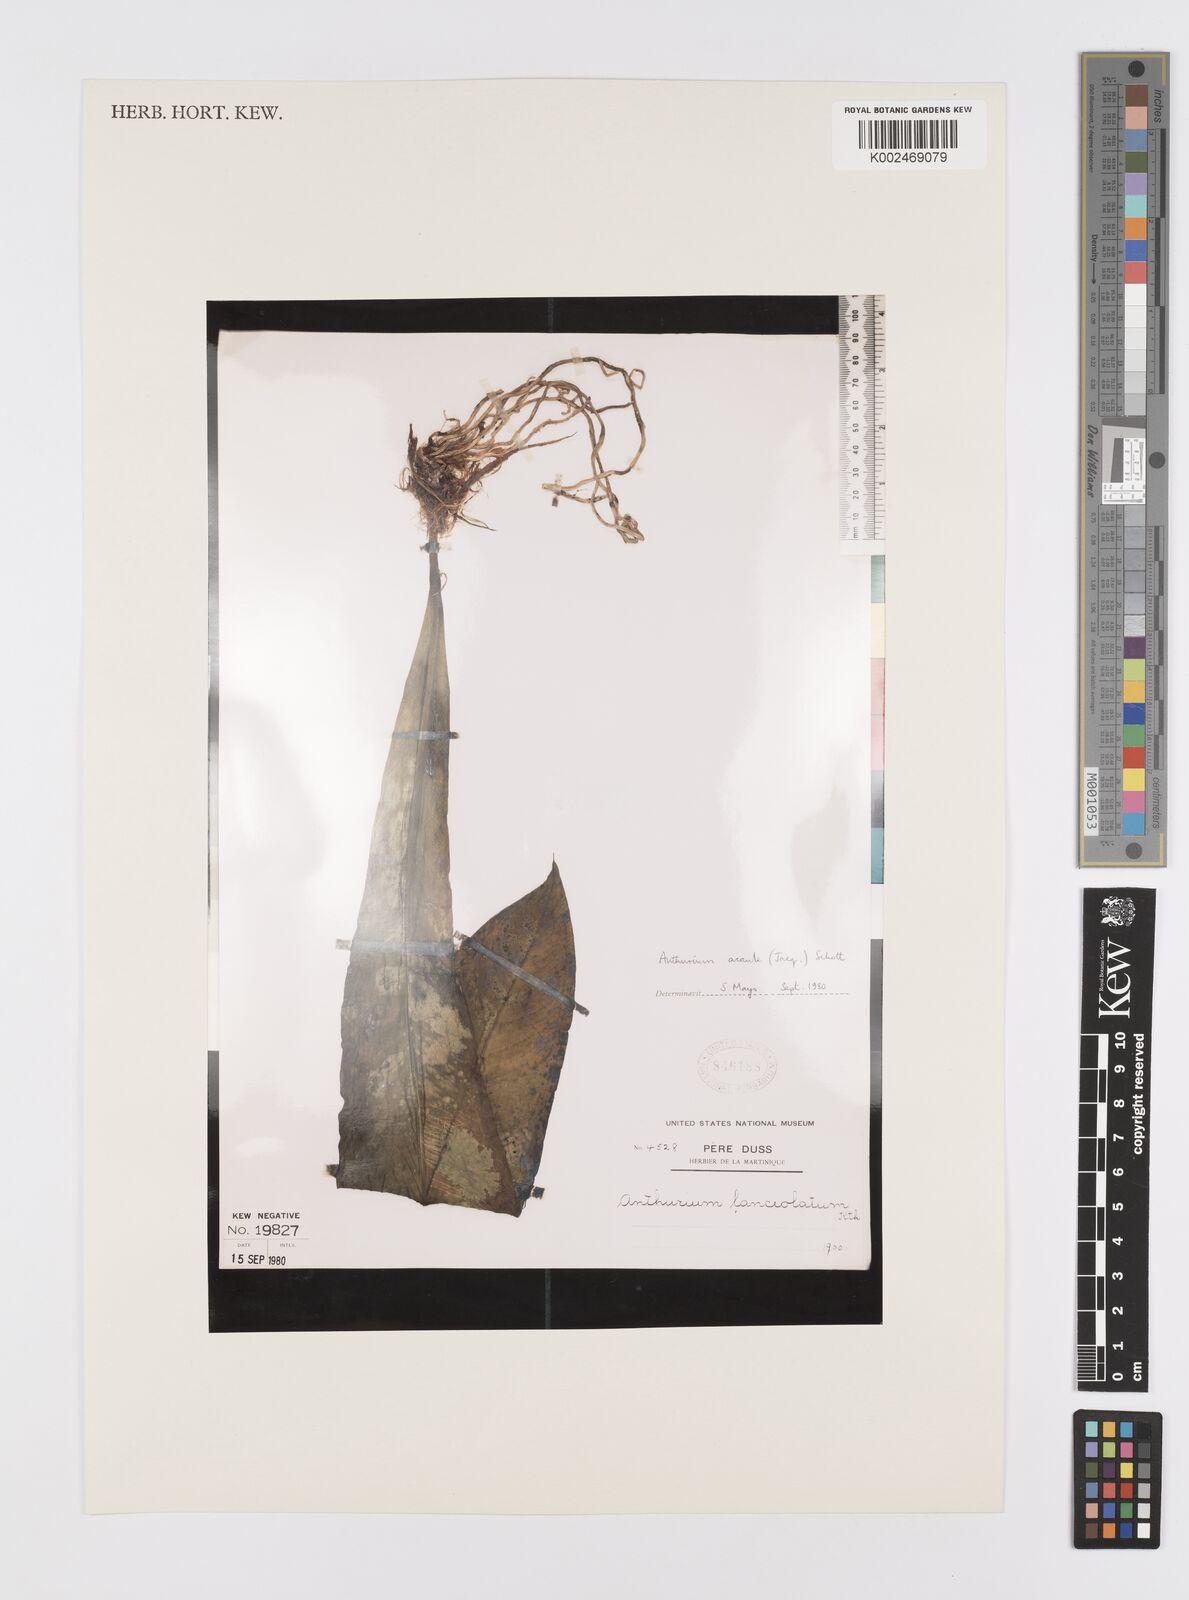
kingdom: Plantae
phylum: Tracheophyta
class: Liliopsida
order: Alismatales
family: Araceae
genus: Anthurium
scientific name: Anthurium acaule
